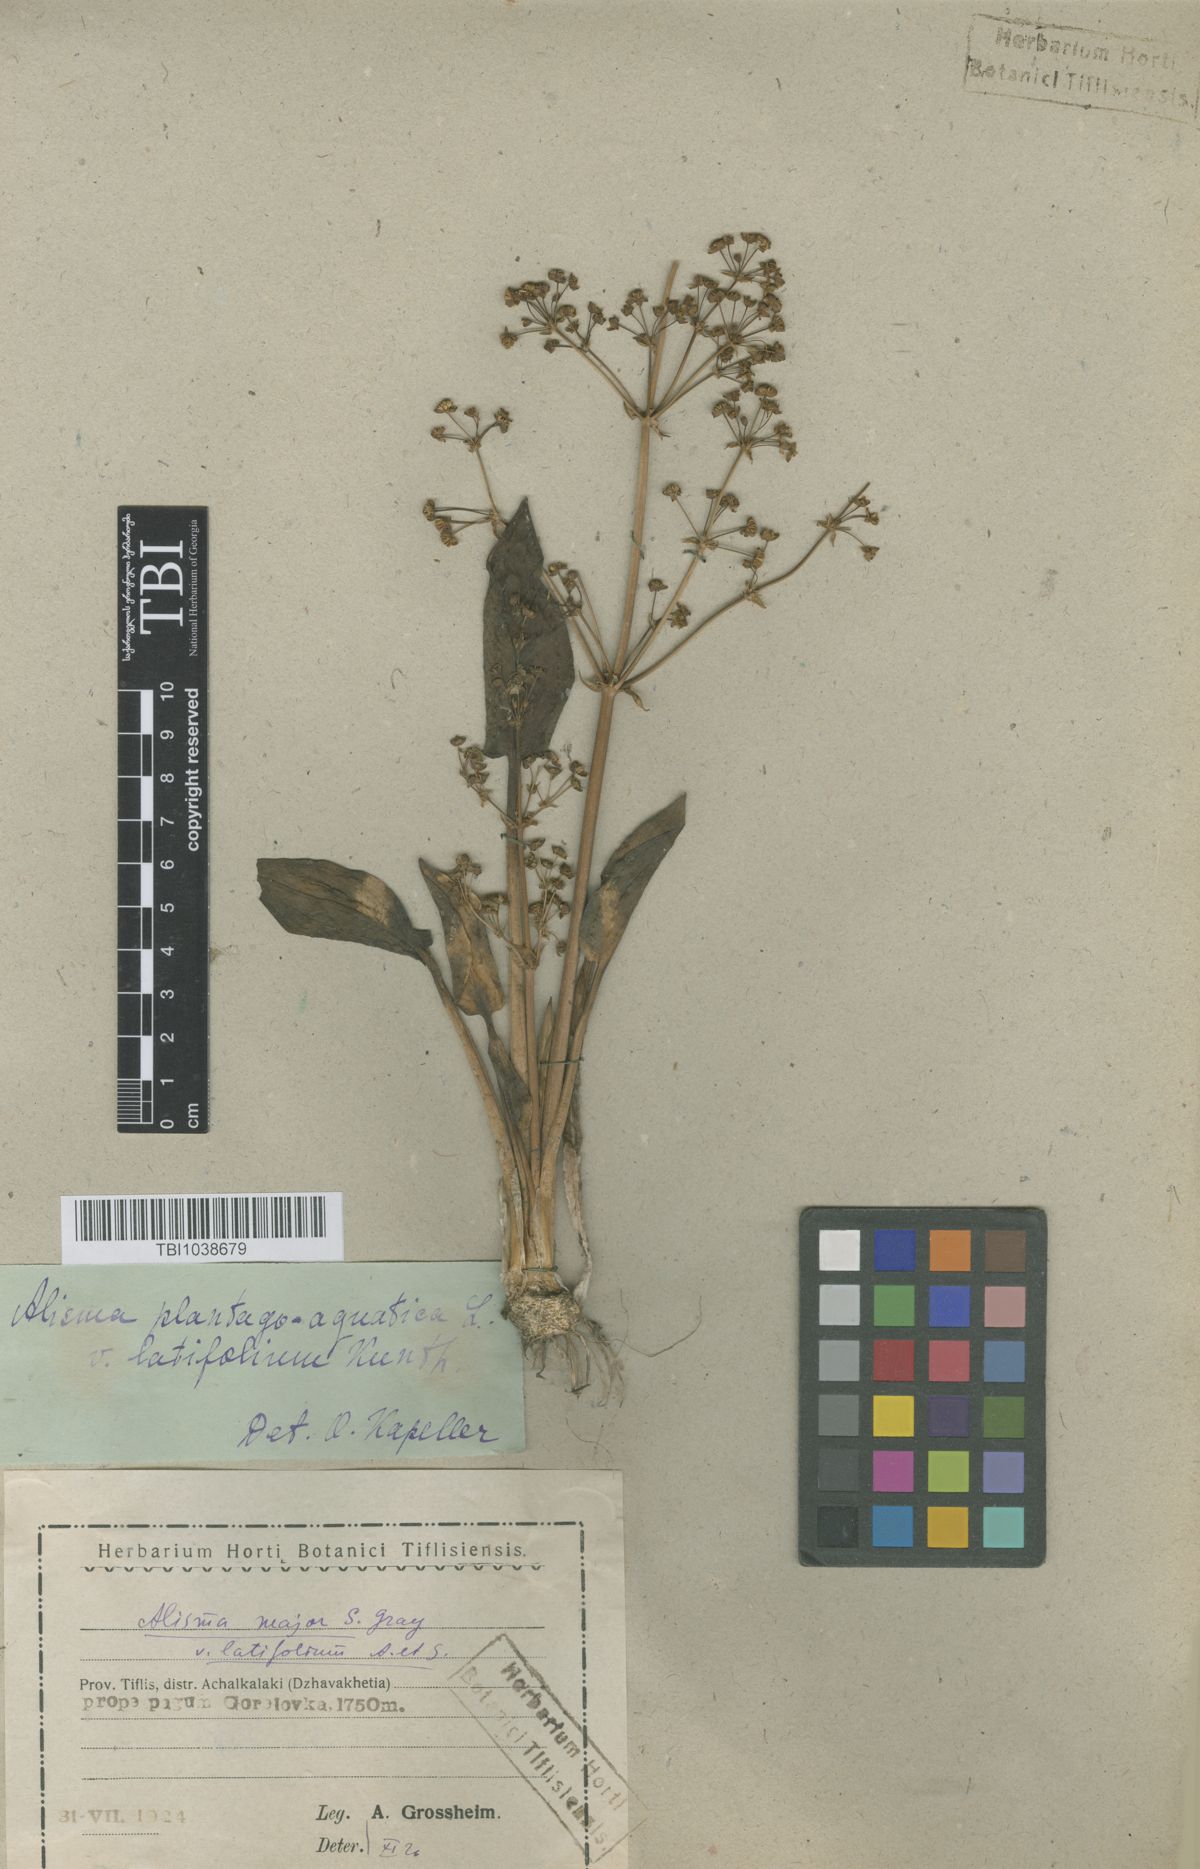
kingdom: Plantae
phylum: Tracheophyta
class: Liliopsida
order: Alismatales
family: Alismataceae
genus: Alisma
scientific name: Alisma plantago-aquatica
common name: Water-plantain
